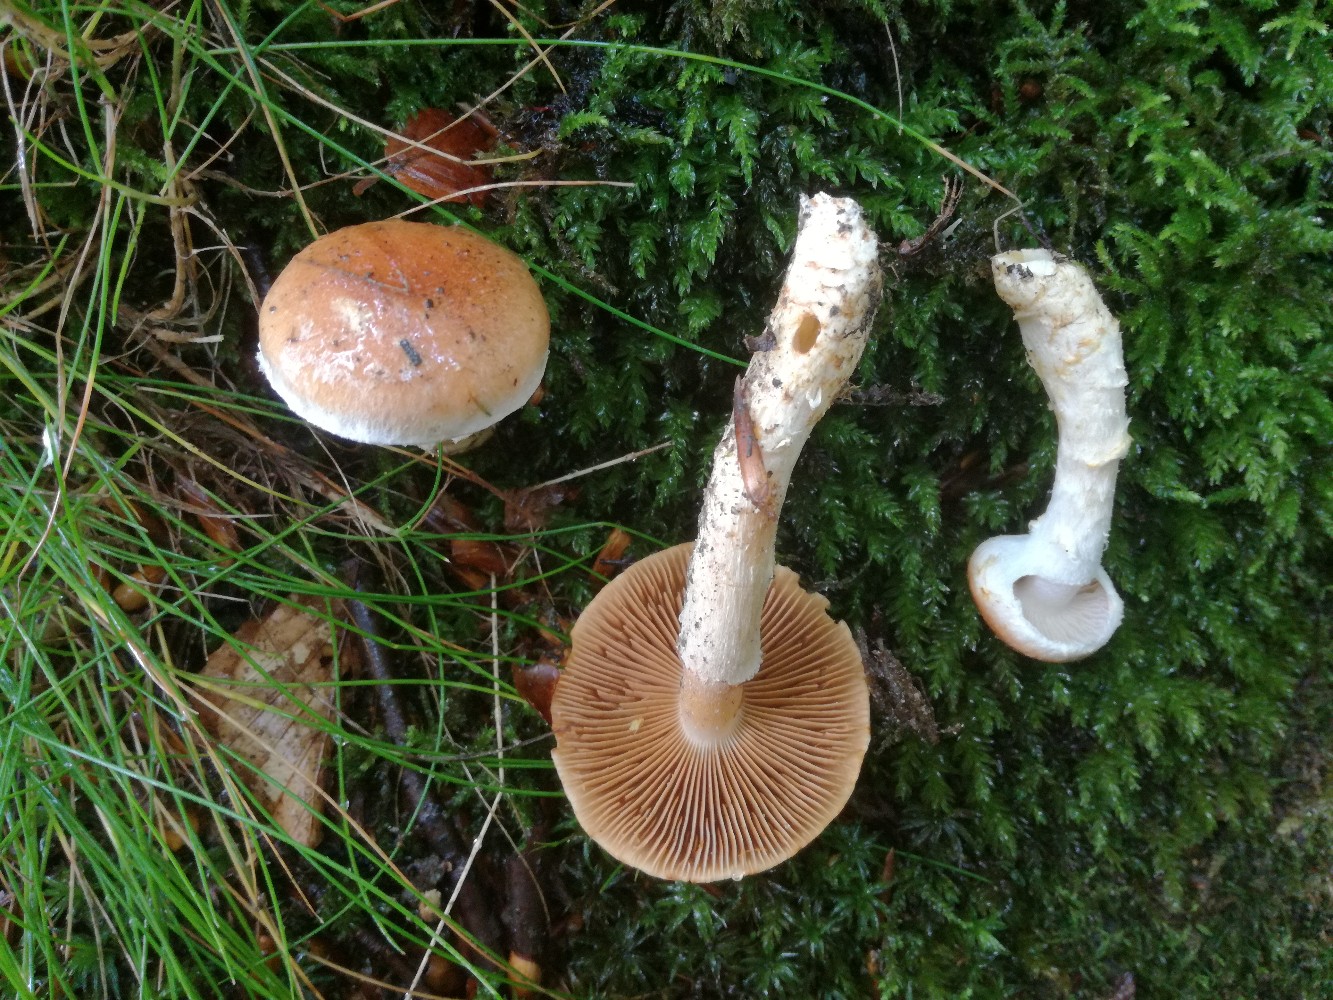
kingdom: Fungi
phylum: Basidiomycota
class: Agaricomycetes
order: Agaricales
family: Cortinariaceae
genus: Phlegmacium
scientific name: Phlegmacium vulpinum
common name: ringbæltet slørhat
